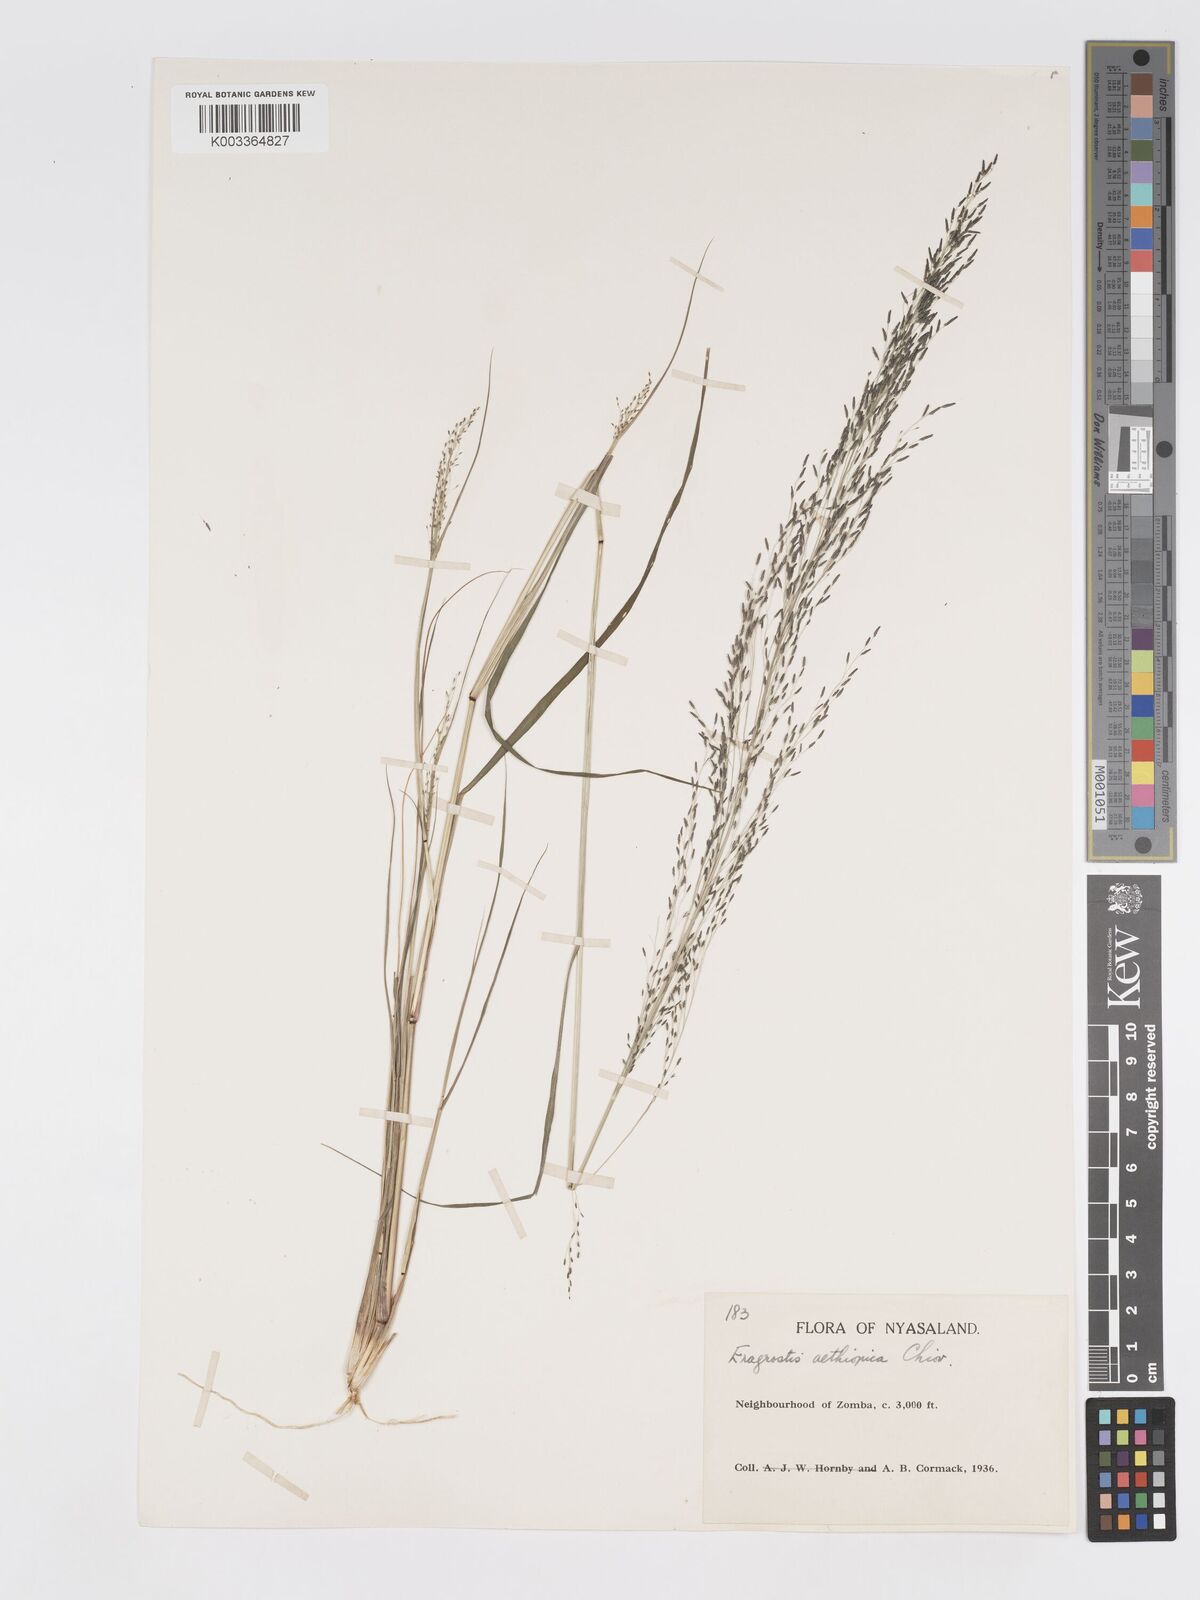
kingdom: Plantae
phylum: Tracheophyta
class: Liliopsida
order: Poales
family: Poaceae
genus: Eragrostis
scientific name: Eragrostis aethiopica
